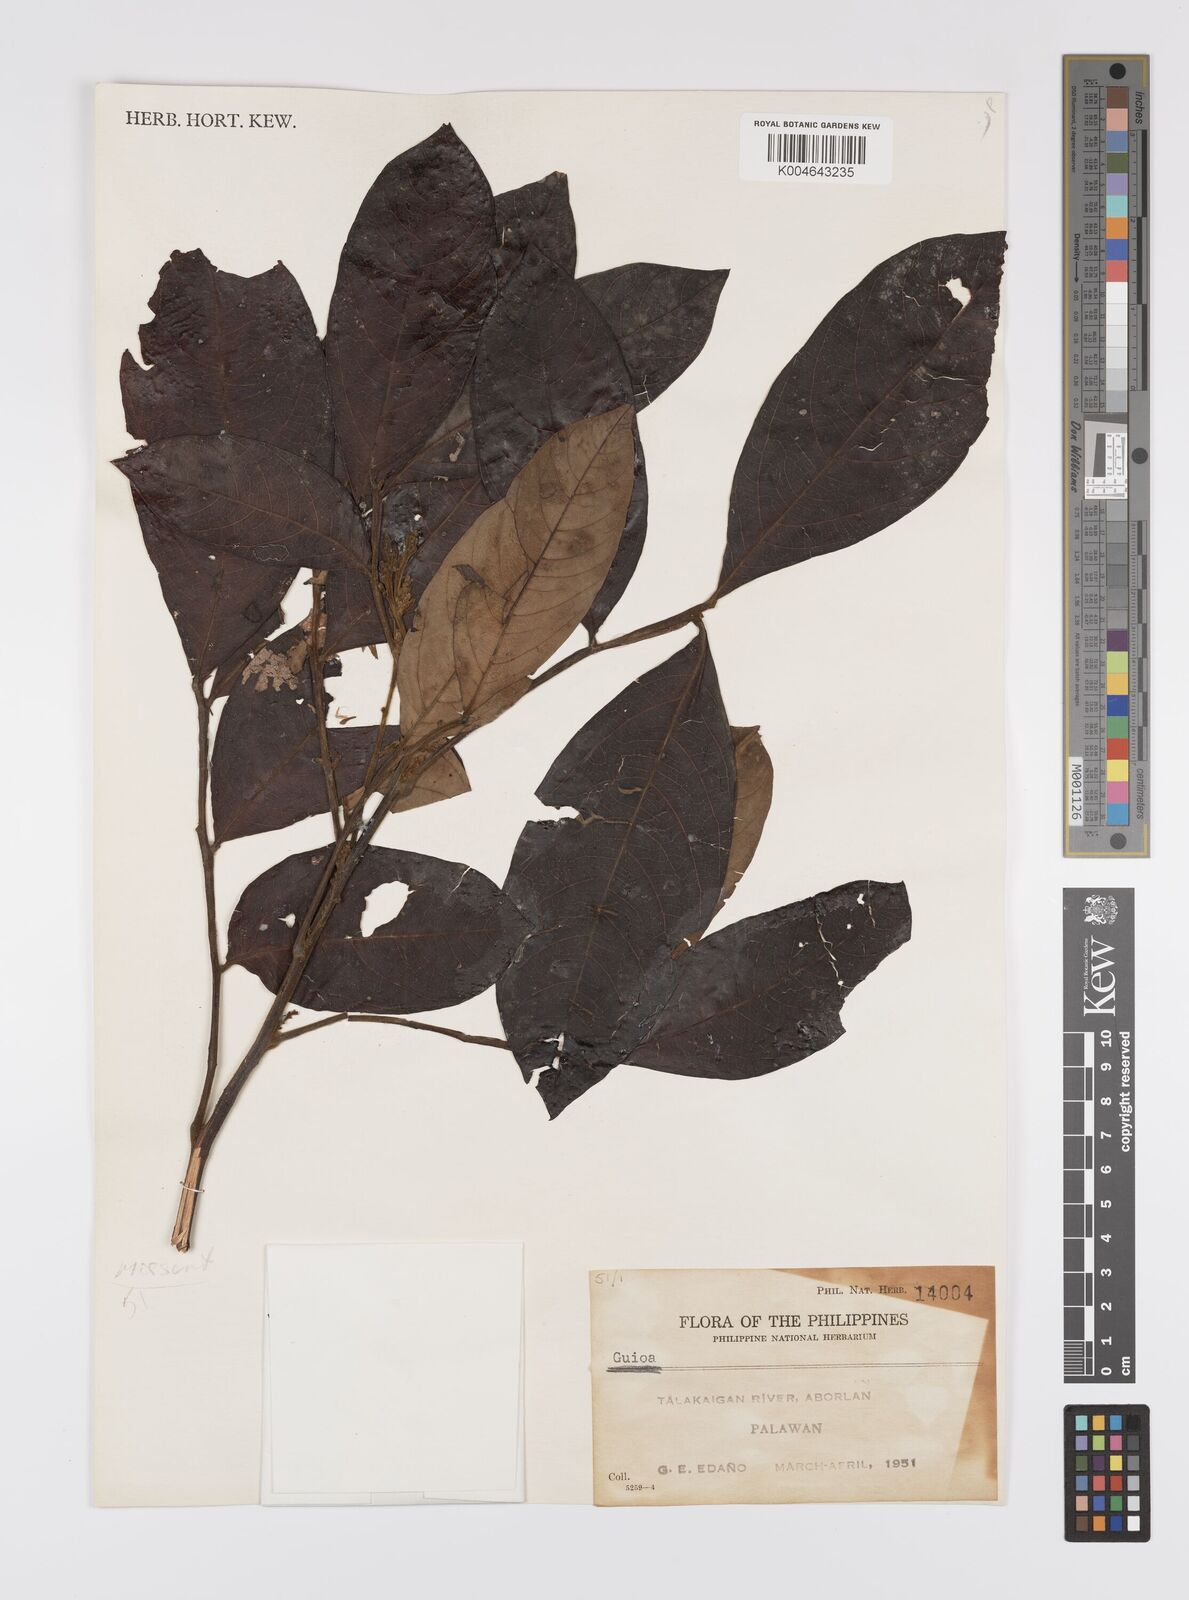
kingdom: Plantae
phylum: Tracheophyta
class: Magnoliopsida
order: Sapindales
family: Sapindaceae
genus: Guioa
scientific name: Guioa
